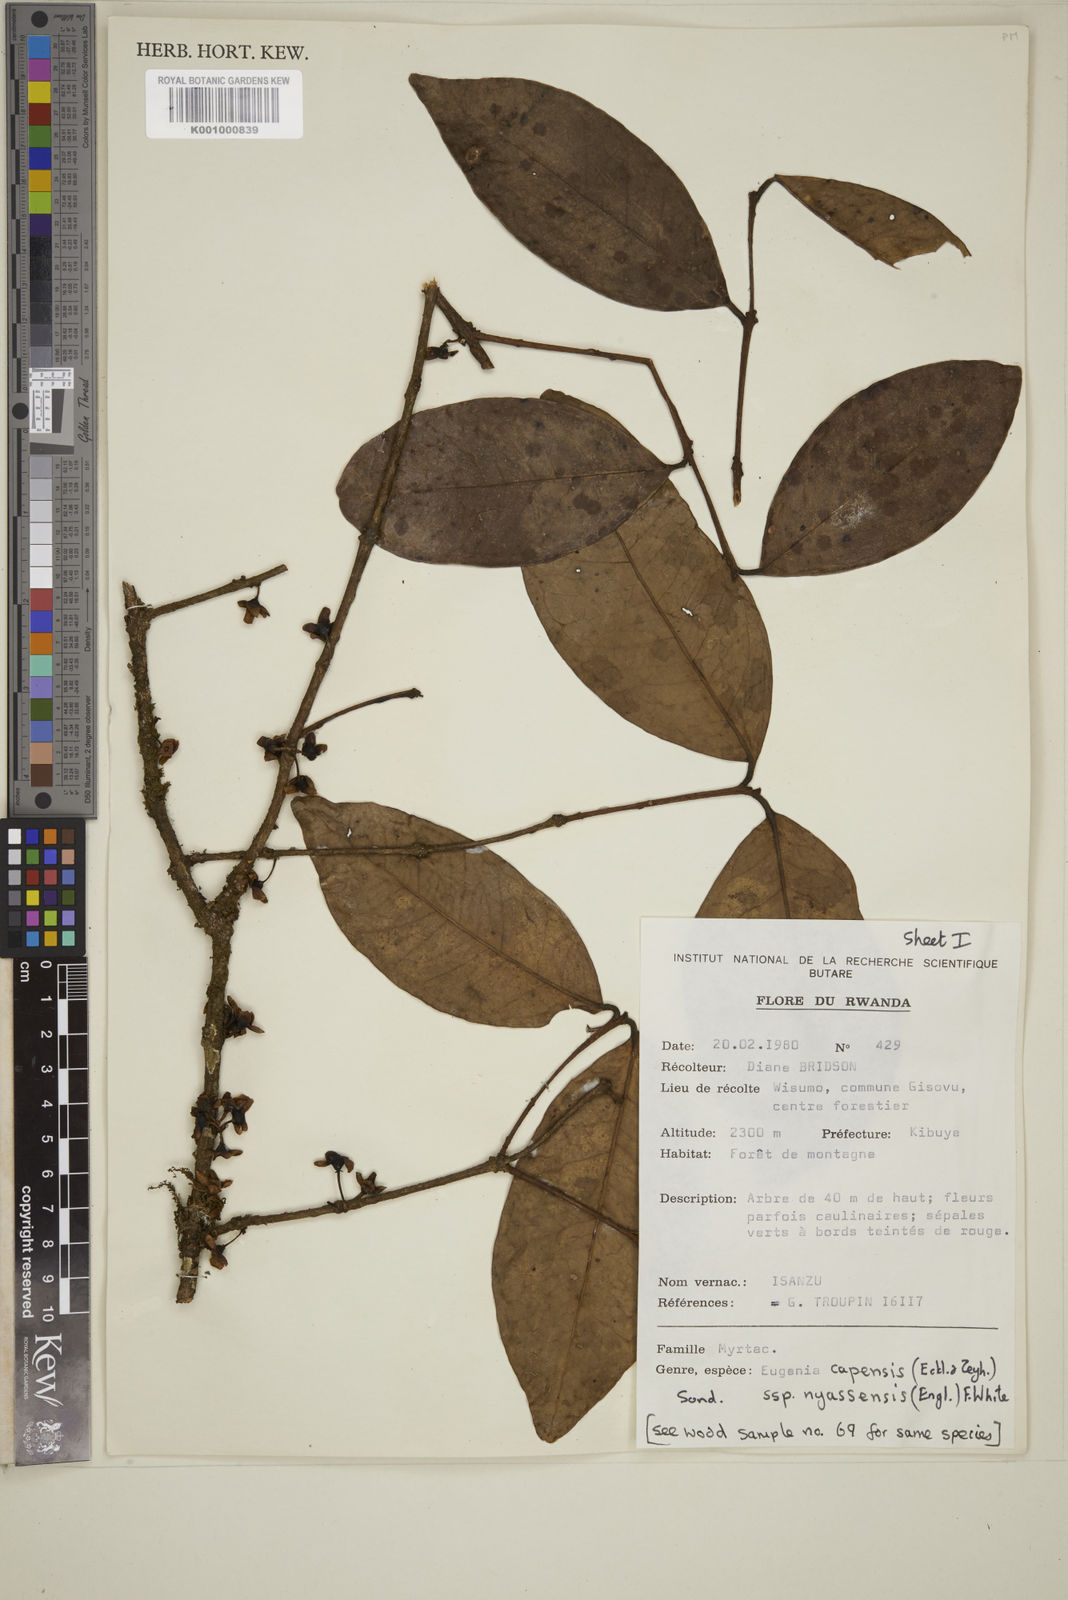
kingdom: Plantae
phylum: Tracheophyta
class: Magnoliopsida
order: Myrtales
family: Myrtaceae
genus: Eugenia
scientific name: Eugenia capensis
